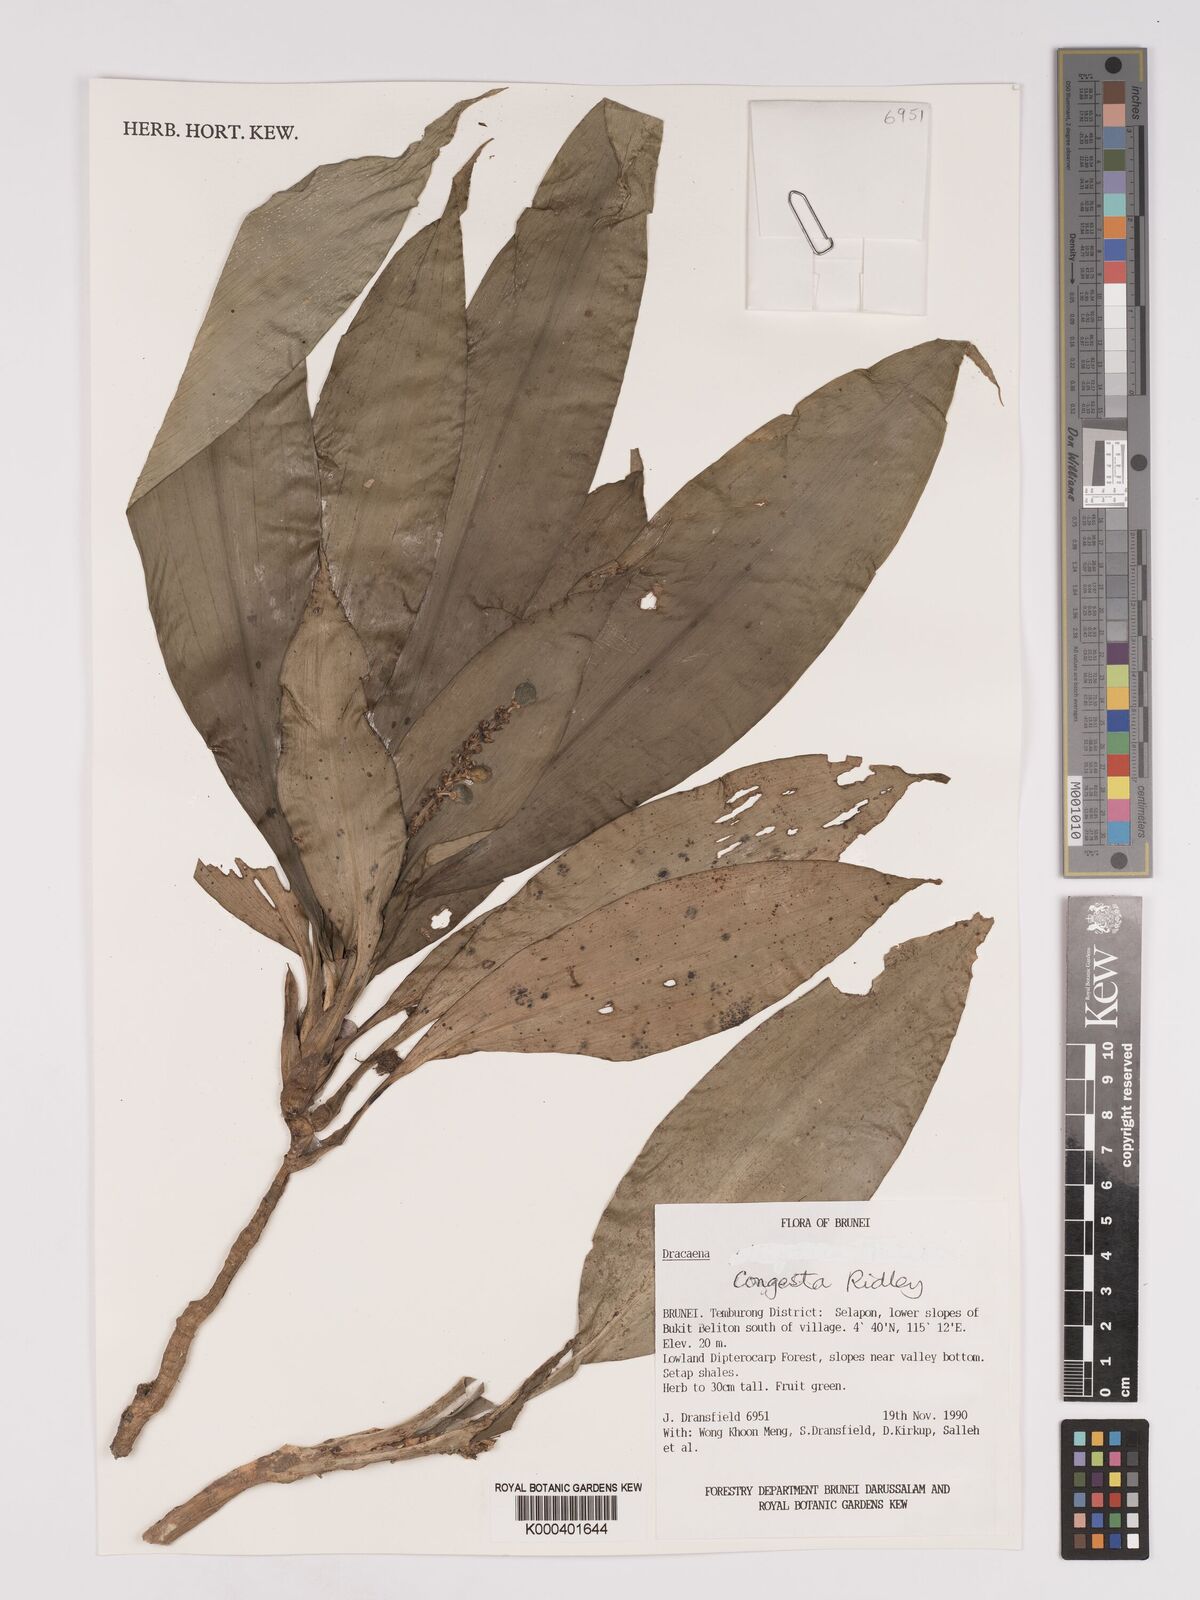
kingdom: Plantae
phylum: Tracheophyta
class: Liliopsida
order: Asparagales
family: Asparagaceae
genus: Dracaena
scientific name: Dracaena chiniana
